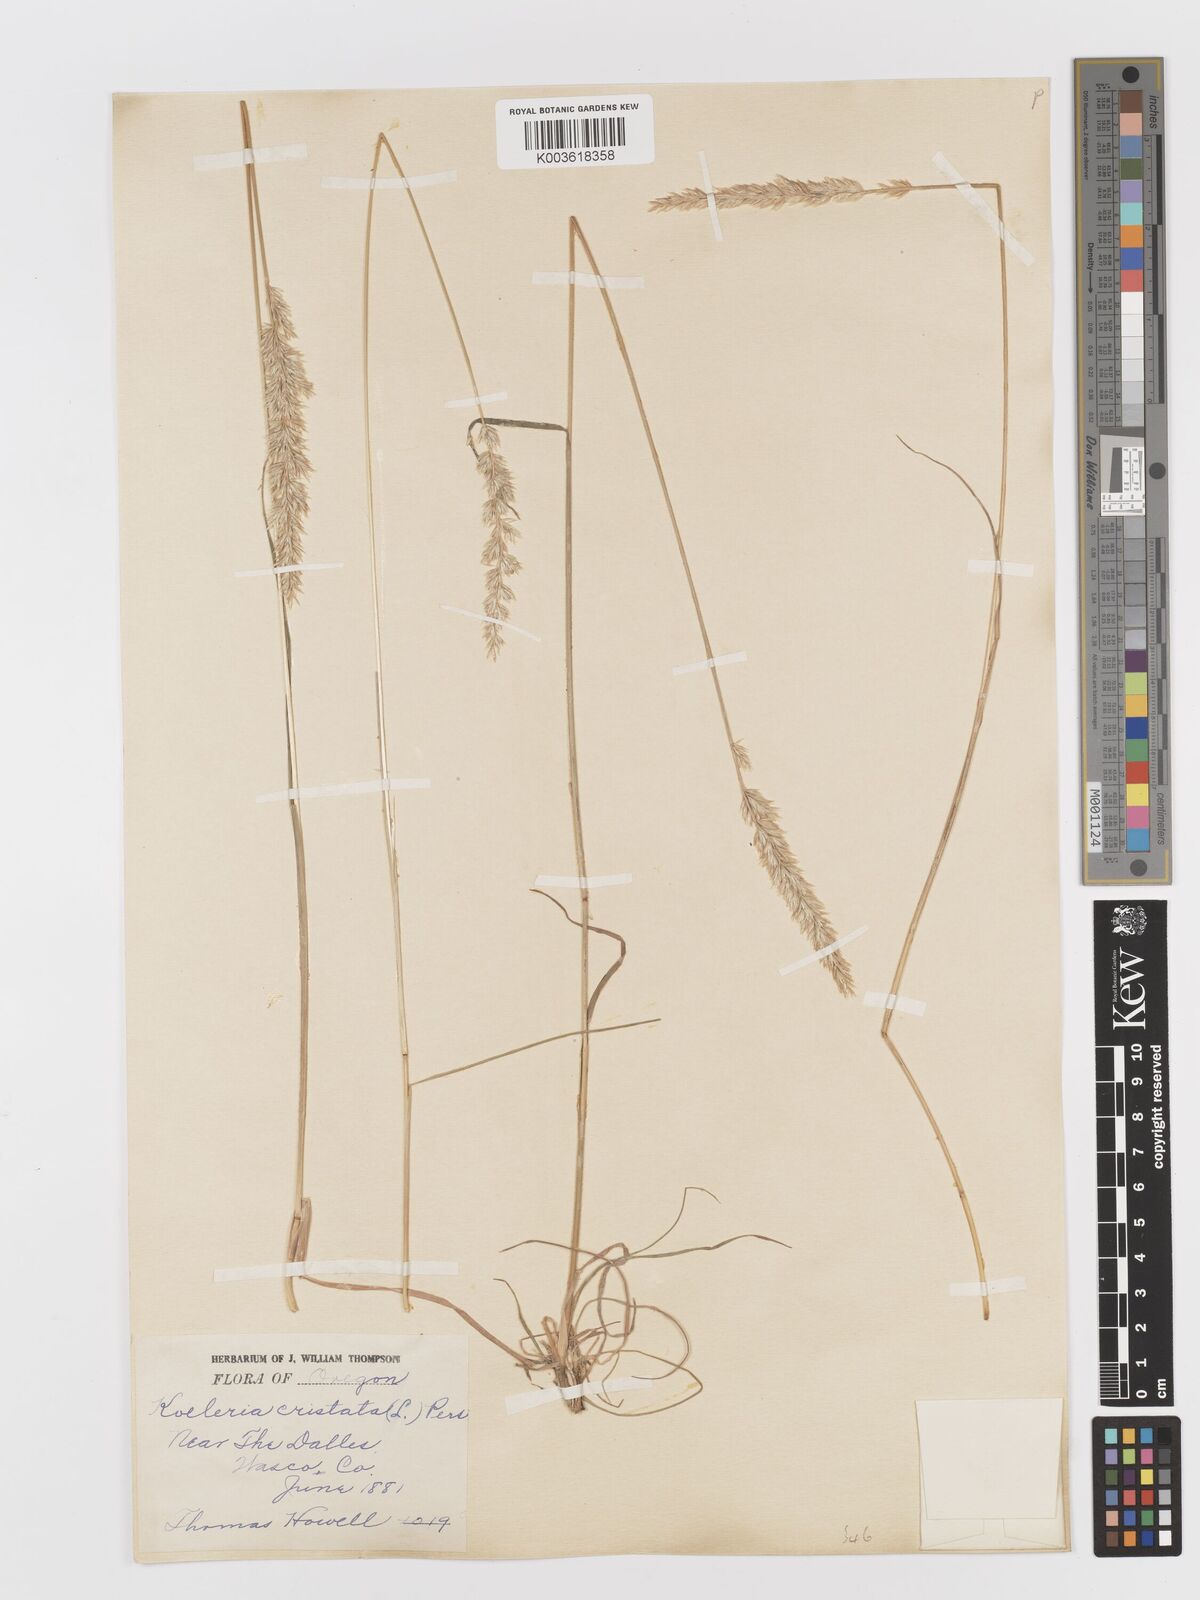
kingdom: Plantae
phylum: Tracheophyta
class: Liliopsida
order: Poales
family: Poaceae
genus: Koeleria
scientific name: Koeleria
